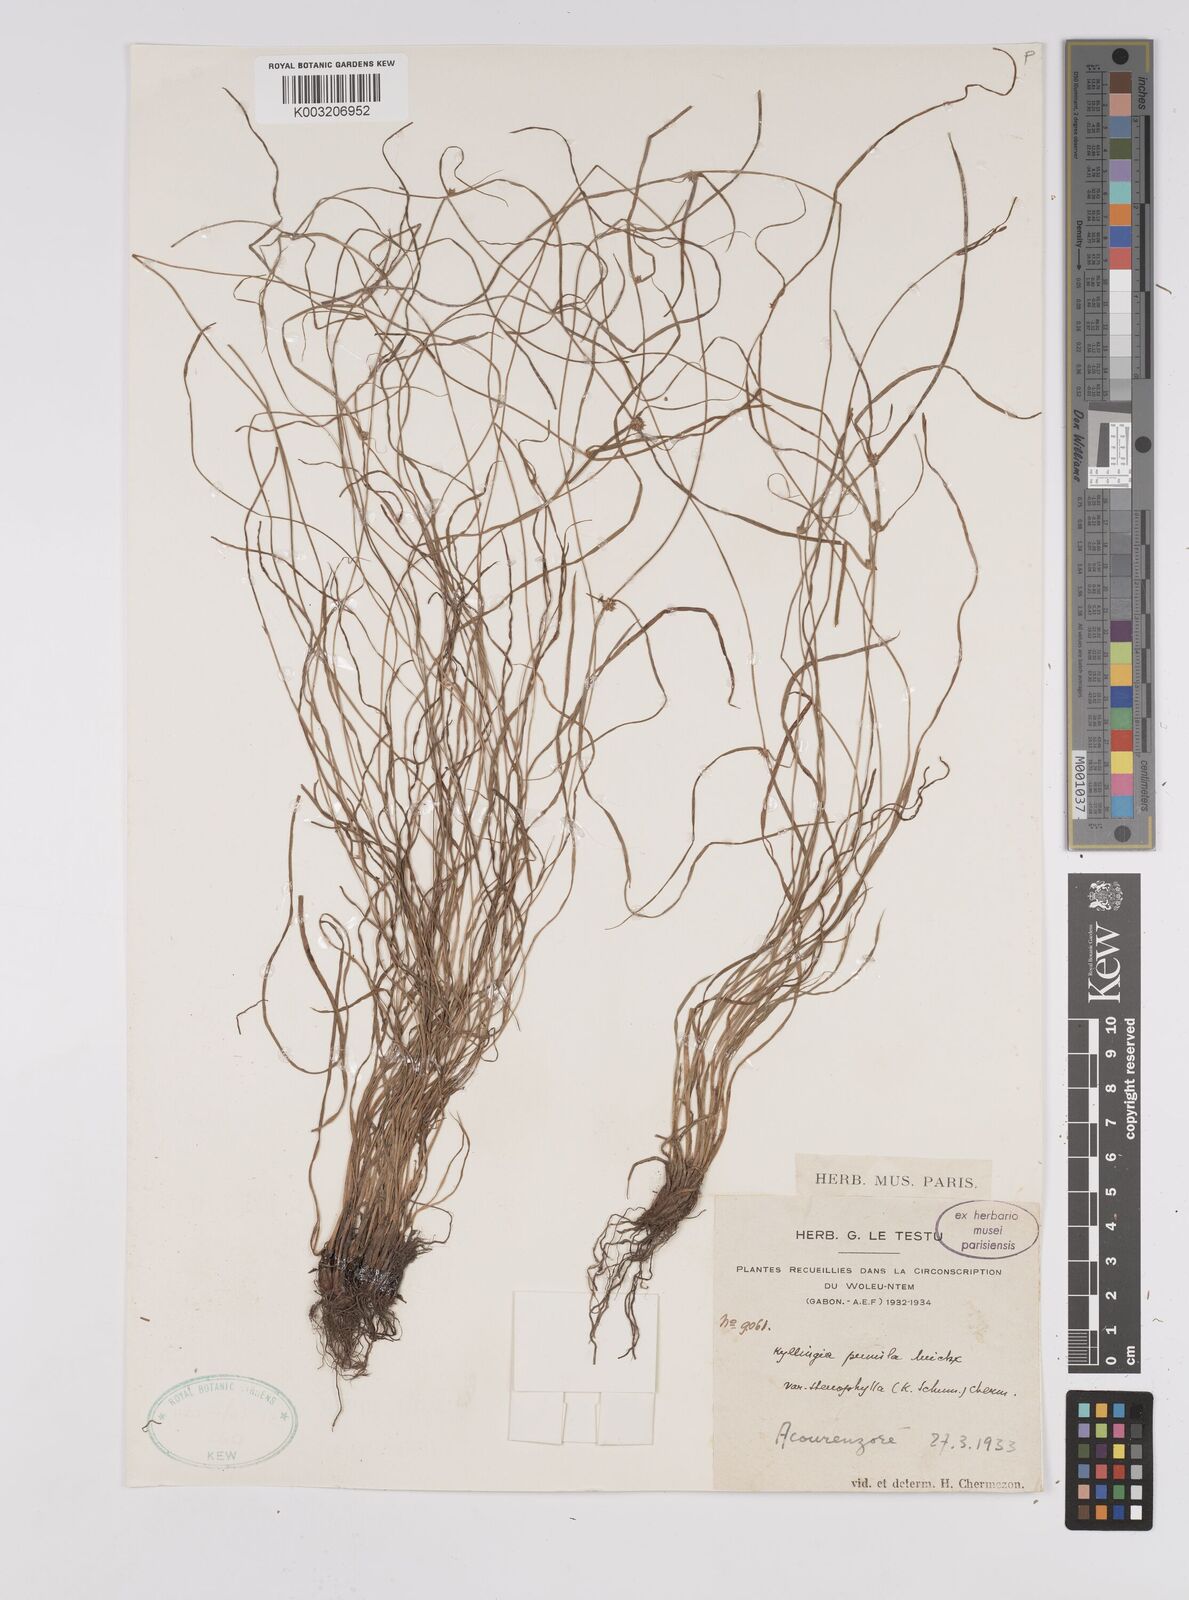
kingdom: Plantae
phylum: Tracheophyta
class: Liliopsida
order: Poales
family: Cyperaceae
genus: Cyperus
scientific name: Cyperus
